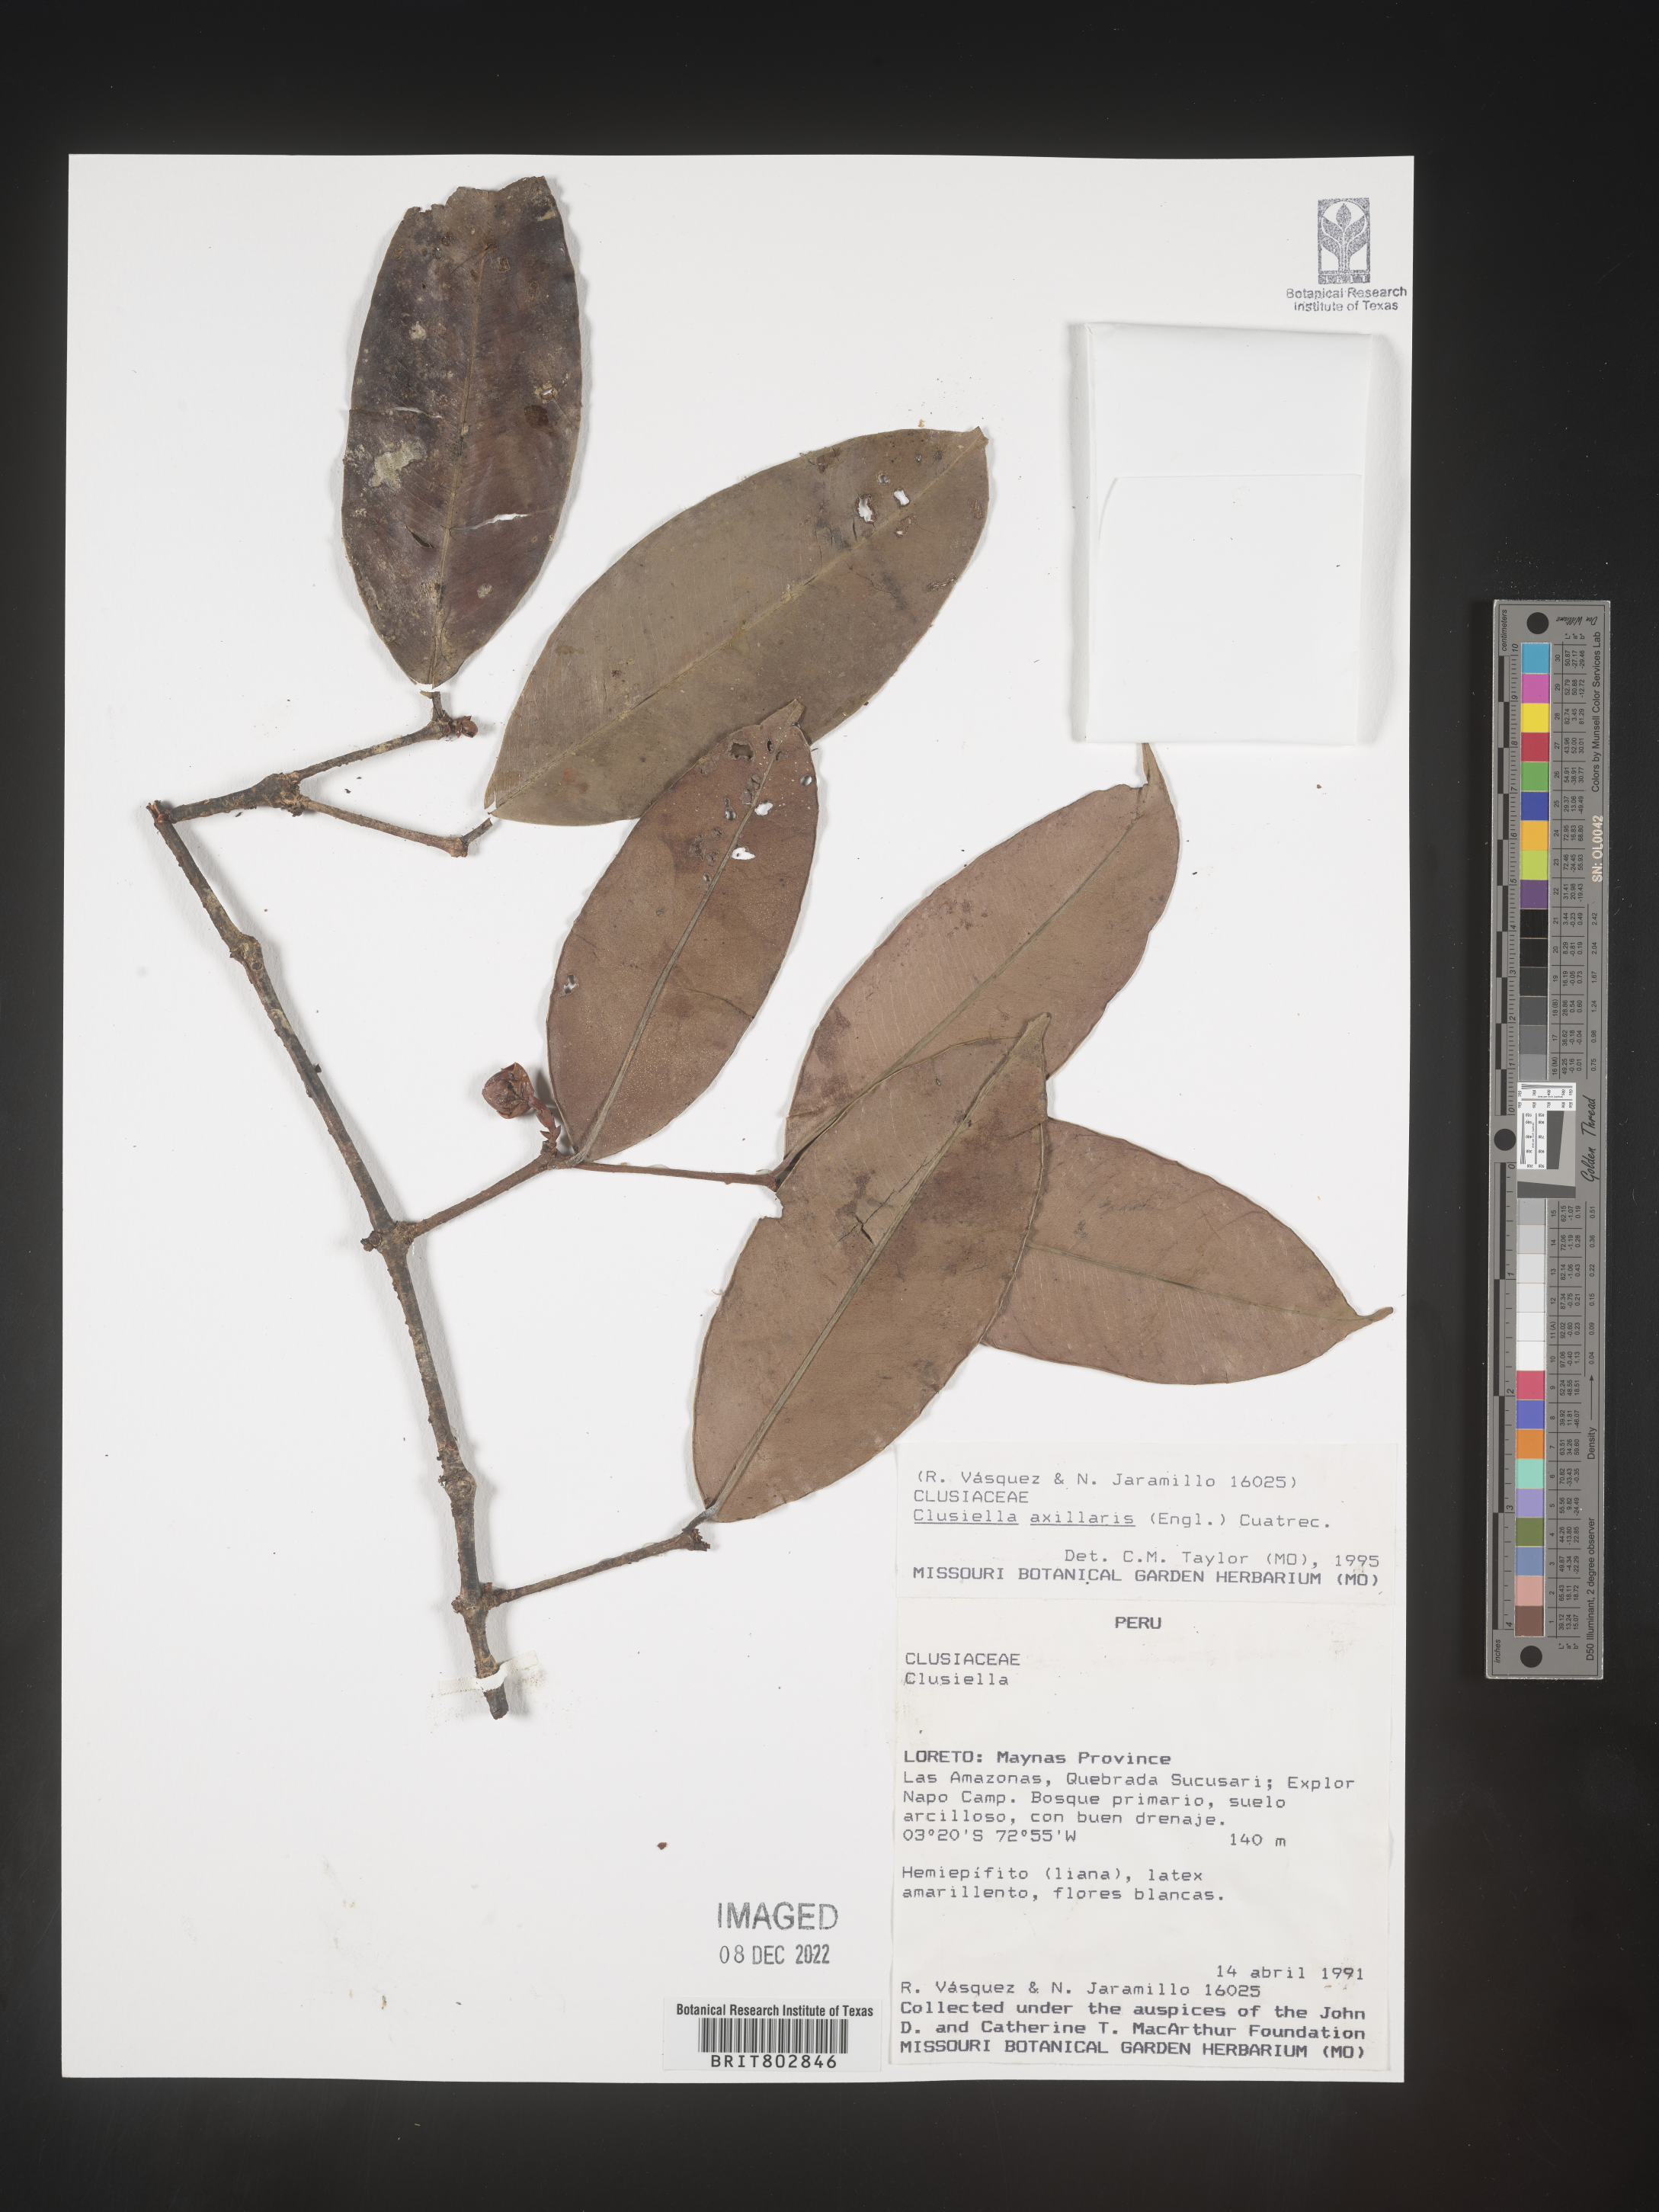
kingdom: Plantae
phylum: Tracheophyta
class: Magnoliopsida
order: Malpighiales
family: Calophyllaceae
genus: Clusiella
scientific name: Clusiella
